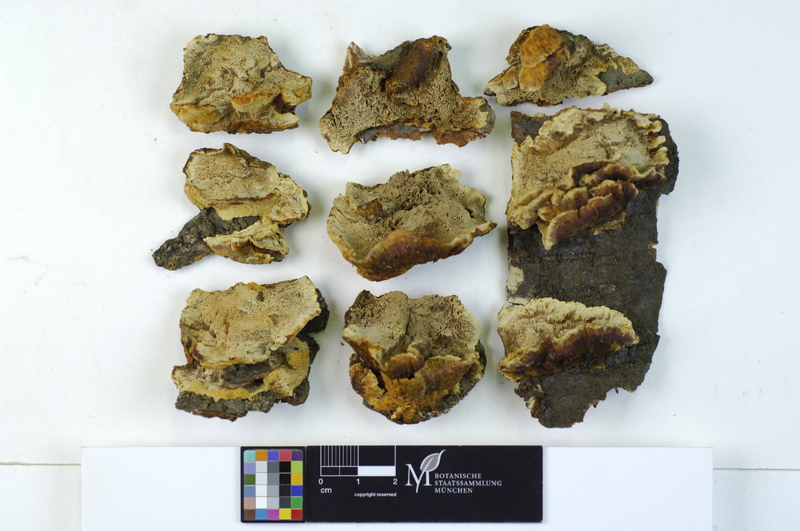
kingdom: Fungi
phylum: Basidiomycota
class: Agaricomycetes
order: Hymenochaetales
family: Hymenochaetaceae
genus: Xanthoporia
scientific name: Xanthoporia radiata
